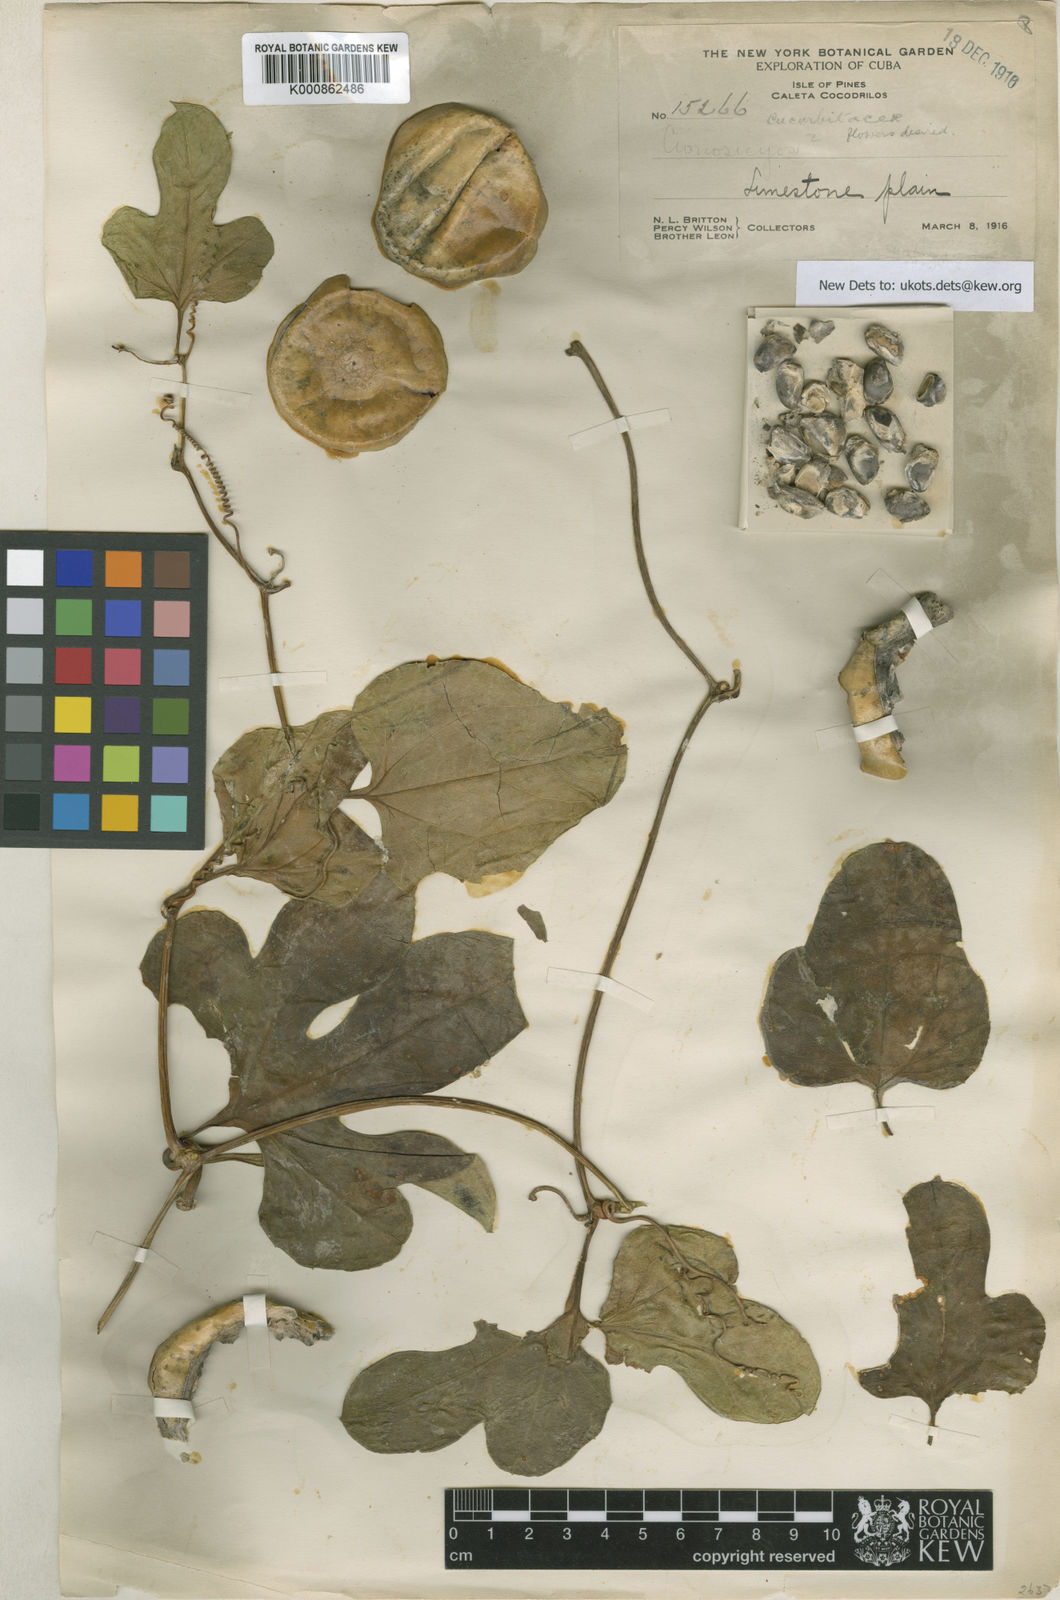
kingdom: Plantae
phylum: Tracheophyta
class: Magnoliopsida
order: Cucurbitales
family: Cucurbitaceae
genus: Cionosicys
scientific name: Cionosicys
